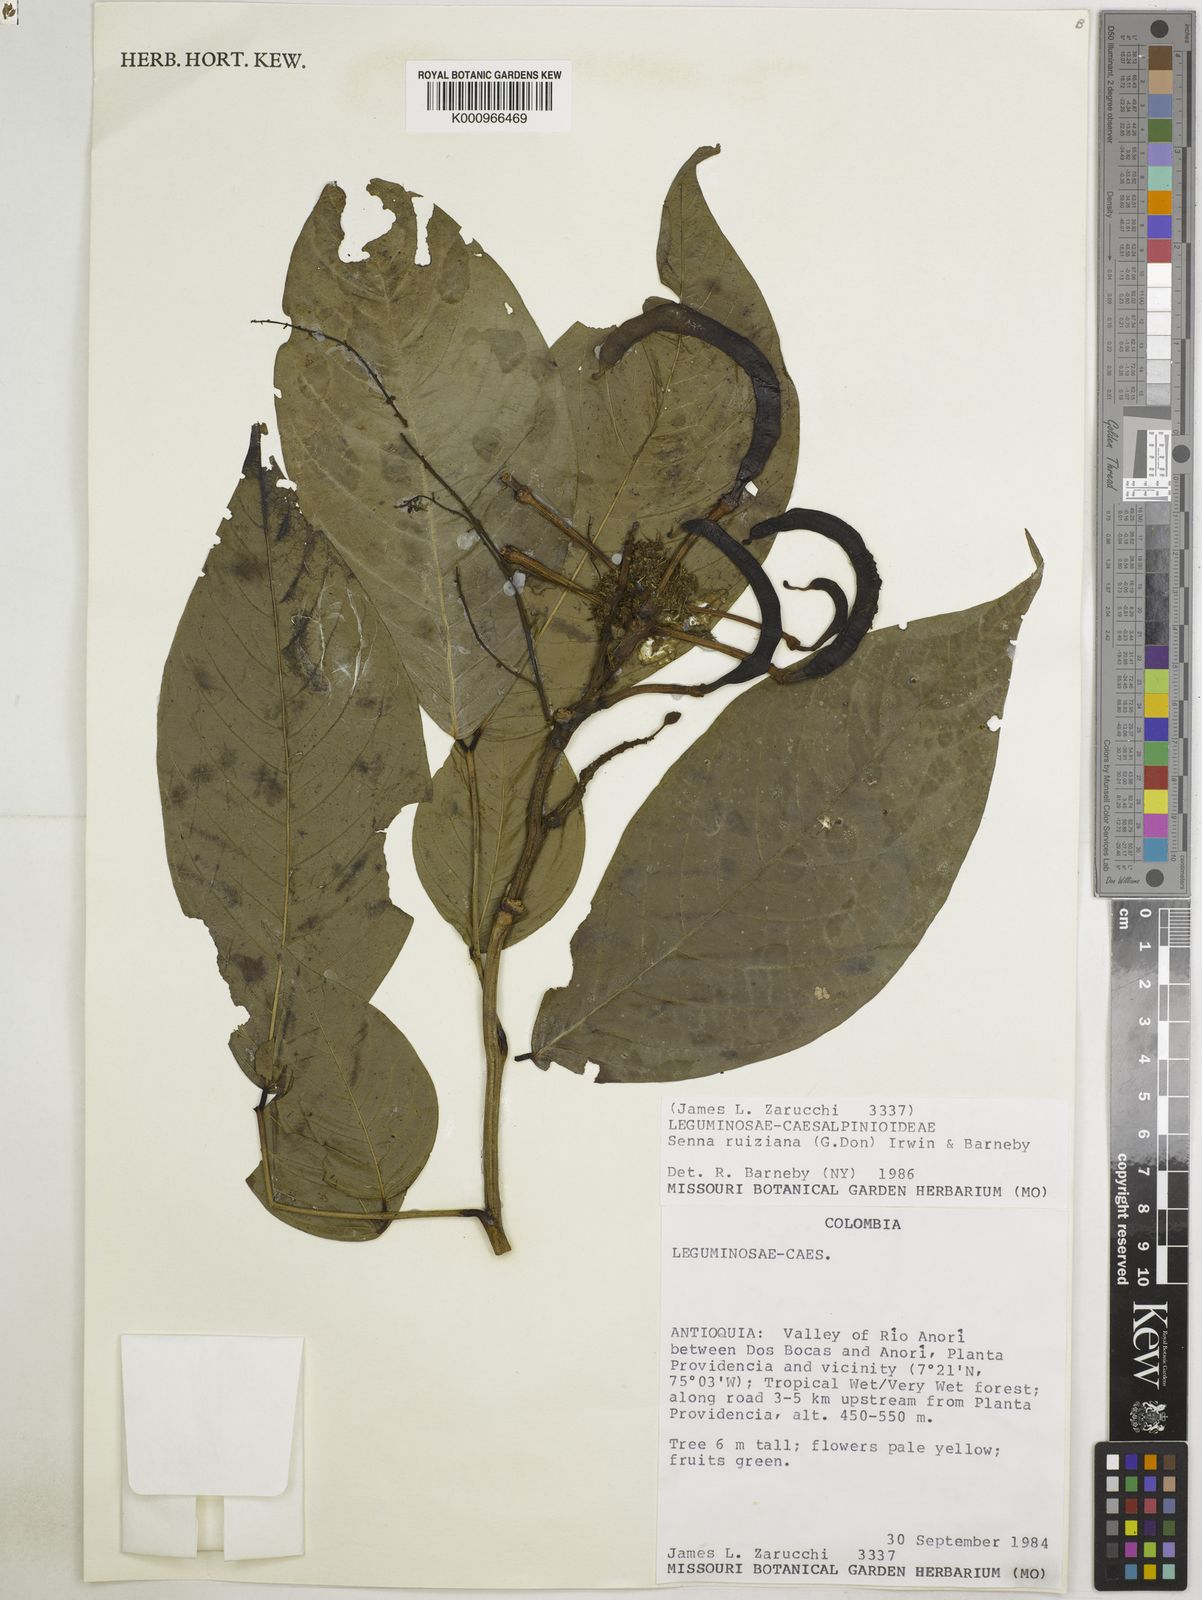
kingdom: Plantae
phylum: Tracheophyta
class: Magnoliopsida
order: Fabales
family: Fabaceae
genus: Senna
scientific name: Senna ruiziana
